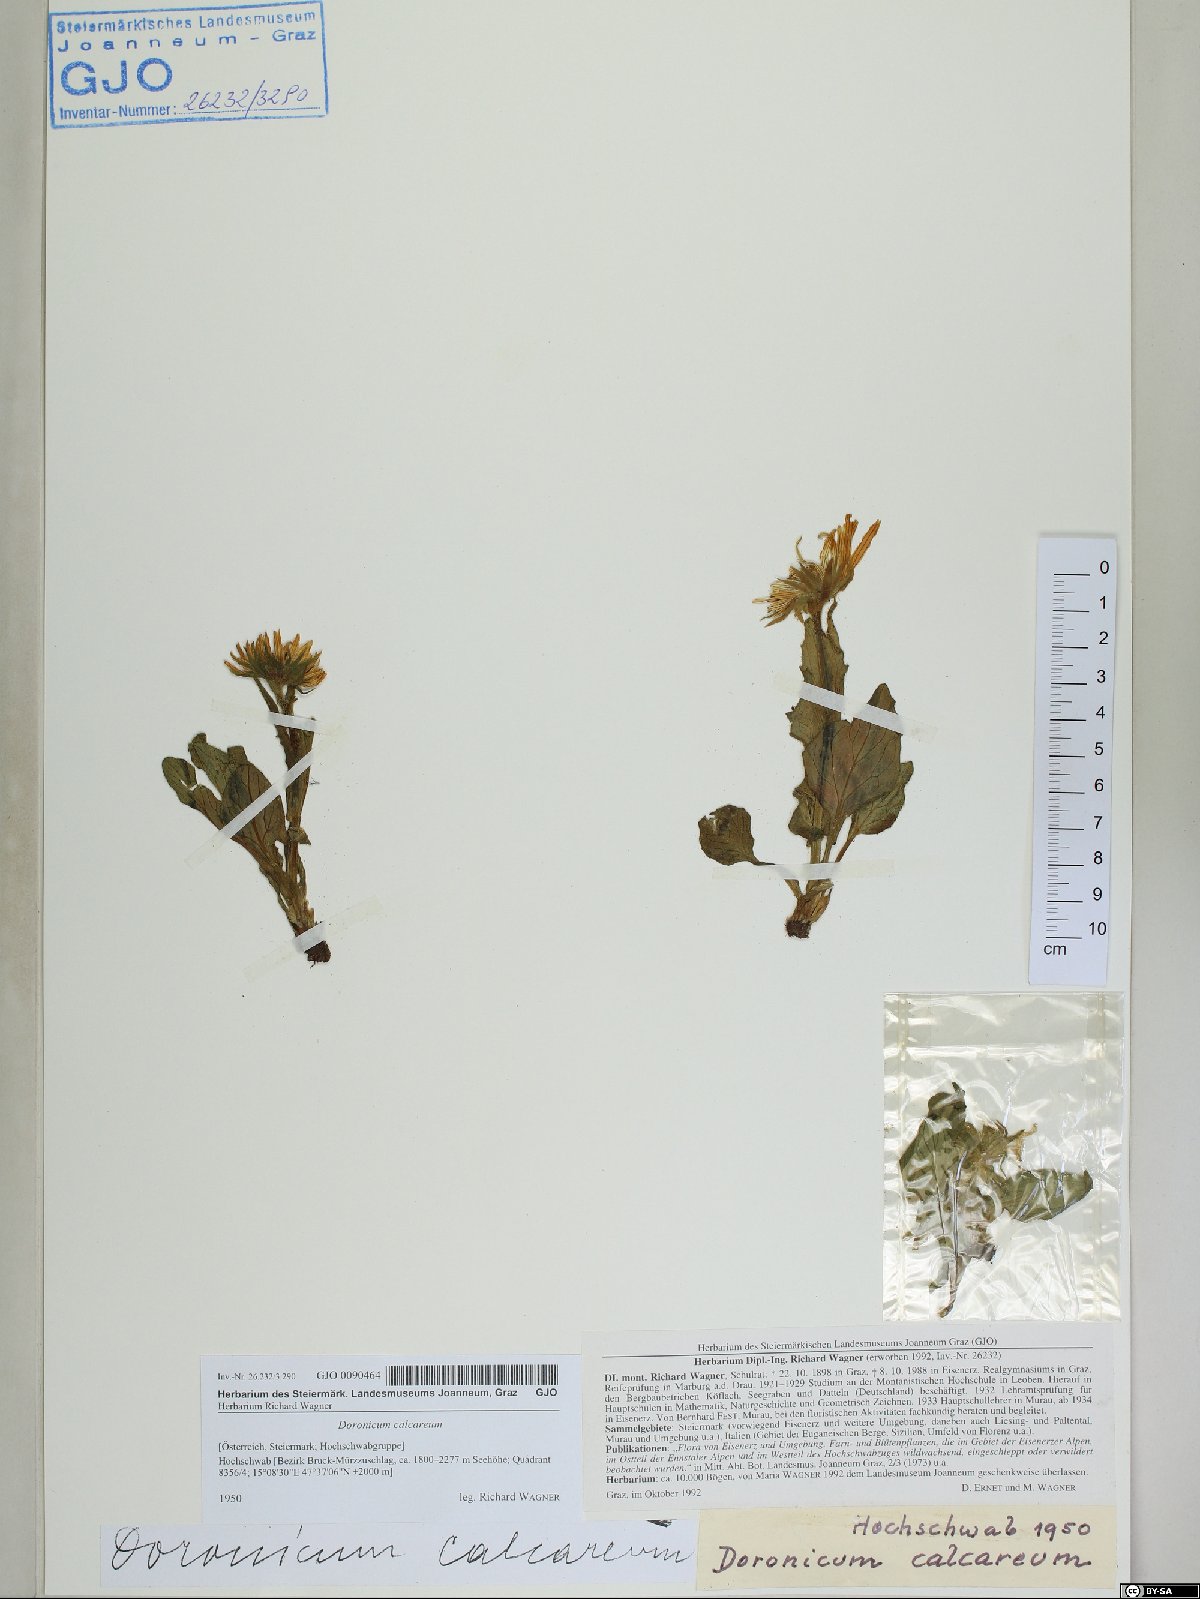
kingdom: Plantae
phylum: Tracheophyta
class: Magnoliopsida
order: Asterales
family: Asteraceae
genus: Doronicum
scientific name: Doronicum glaciale
